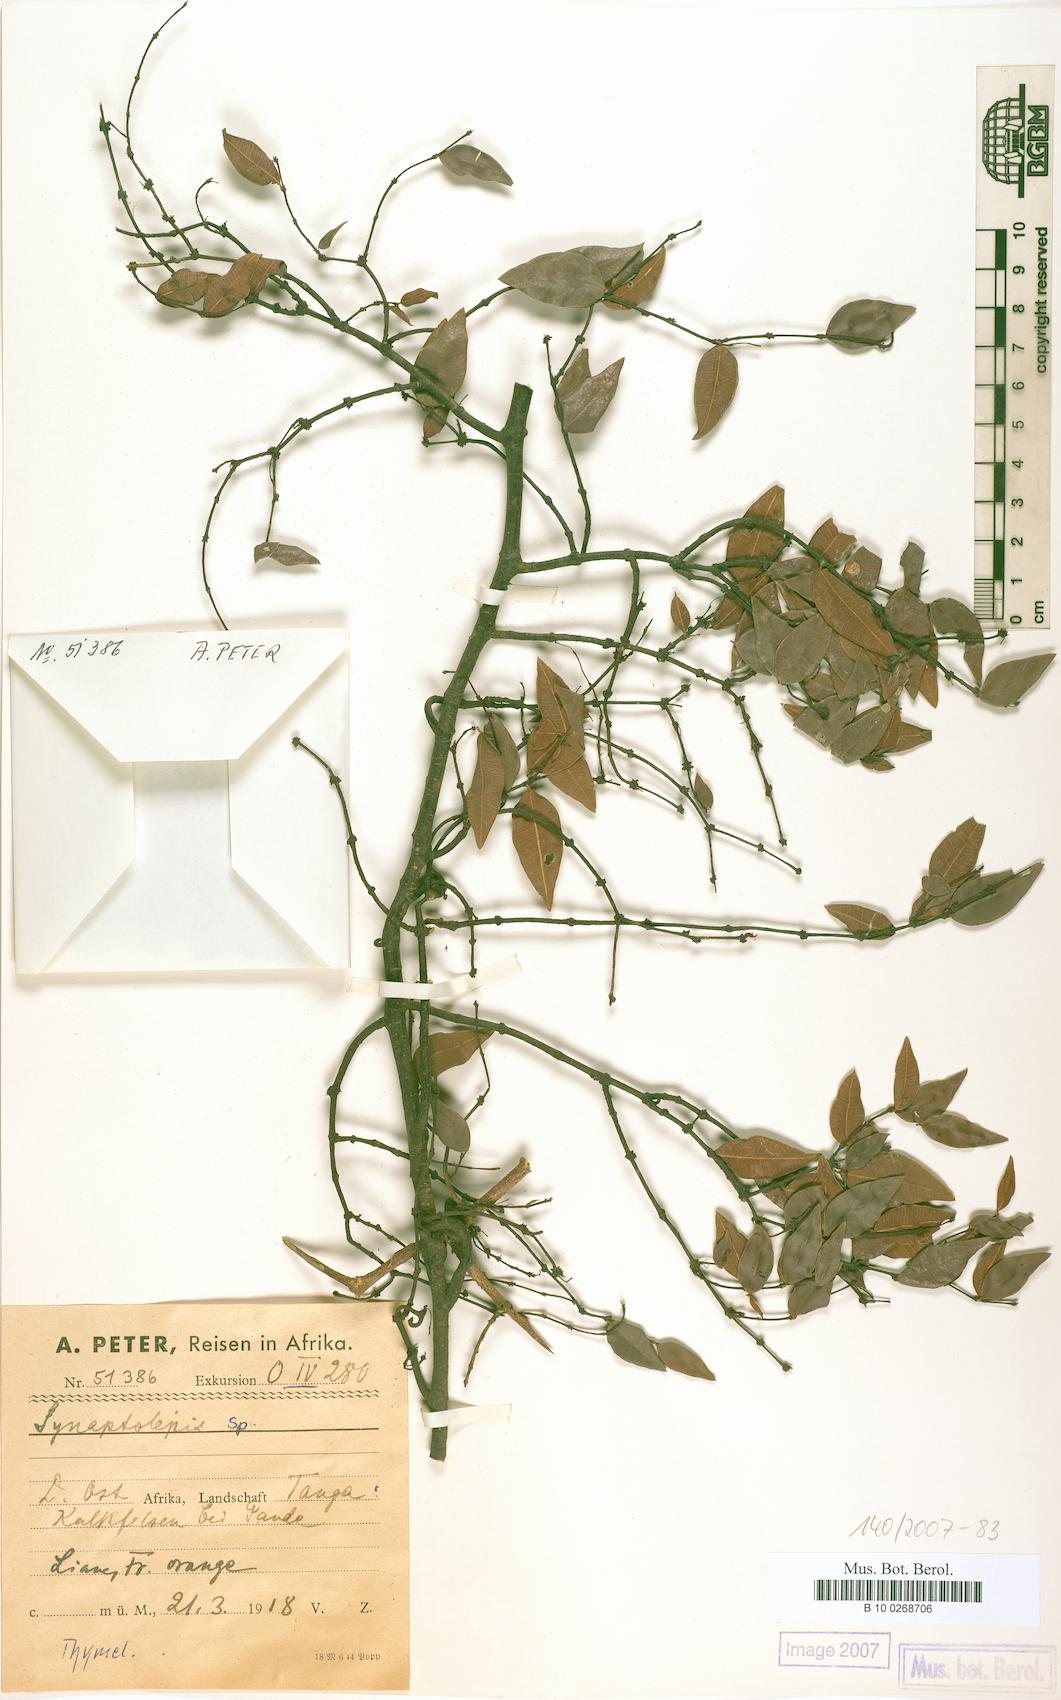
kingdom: Plantae
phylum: Tracheophyta
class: Magnoliopsida
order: Malvales
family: Thymelaeaceae
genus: Synaptolepis
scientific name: Synaptolepis
